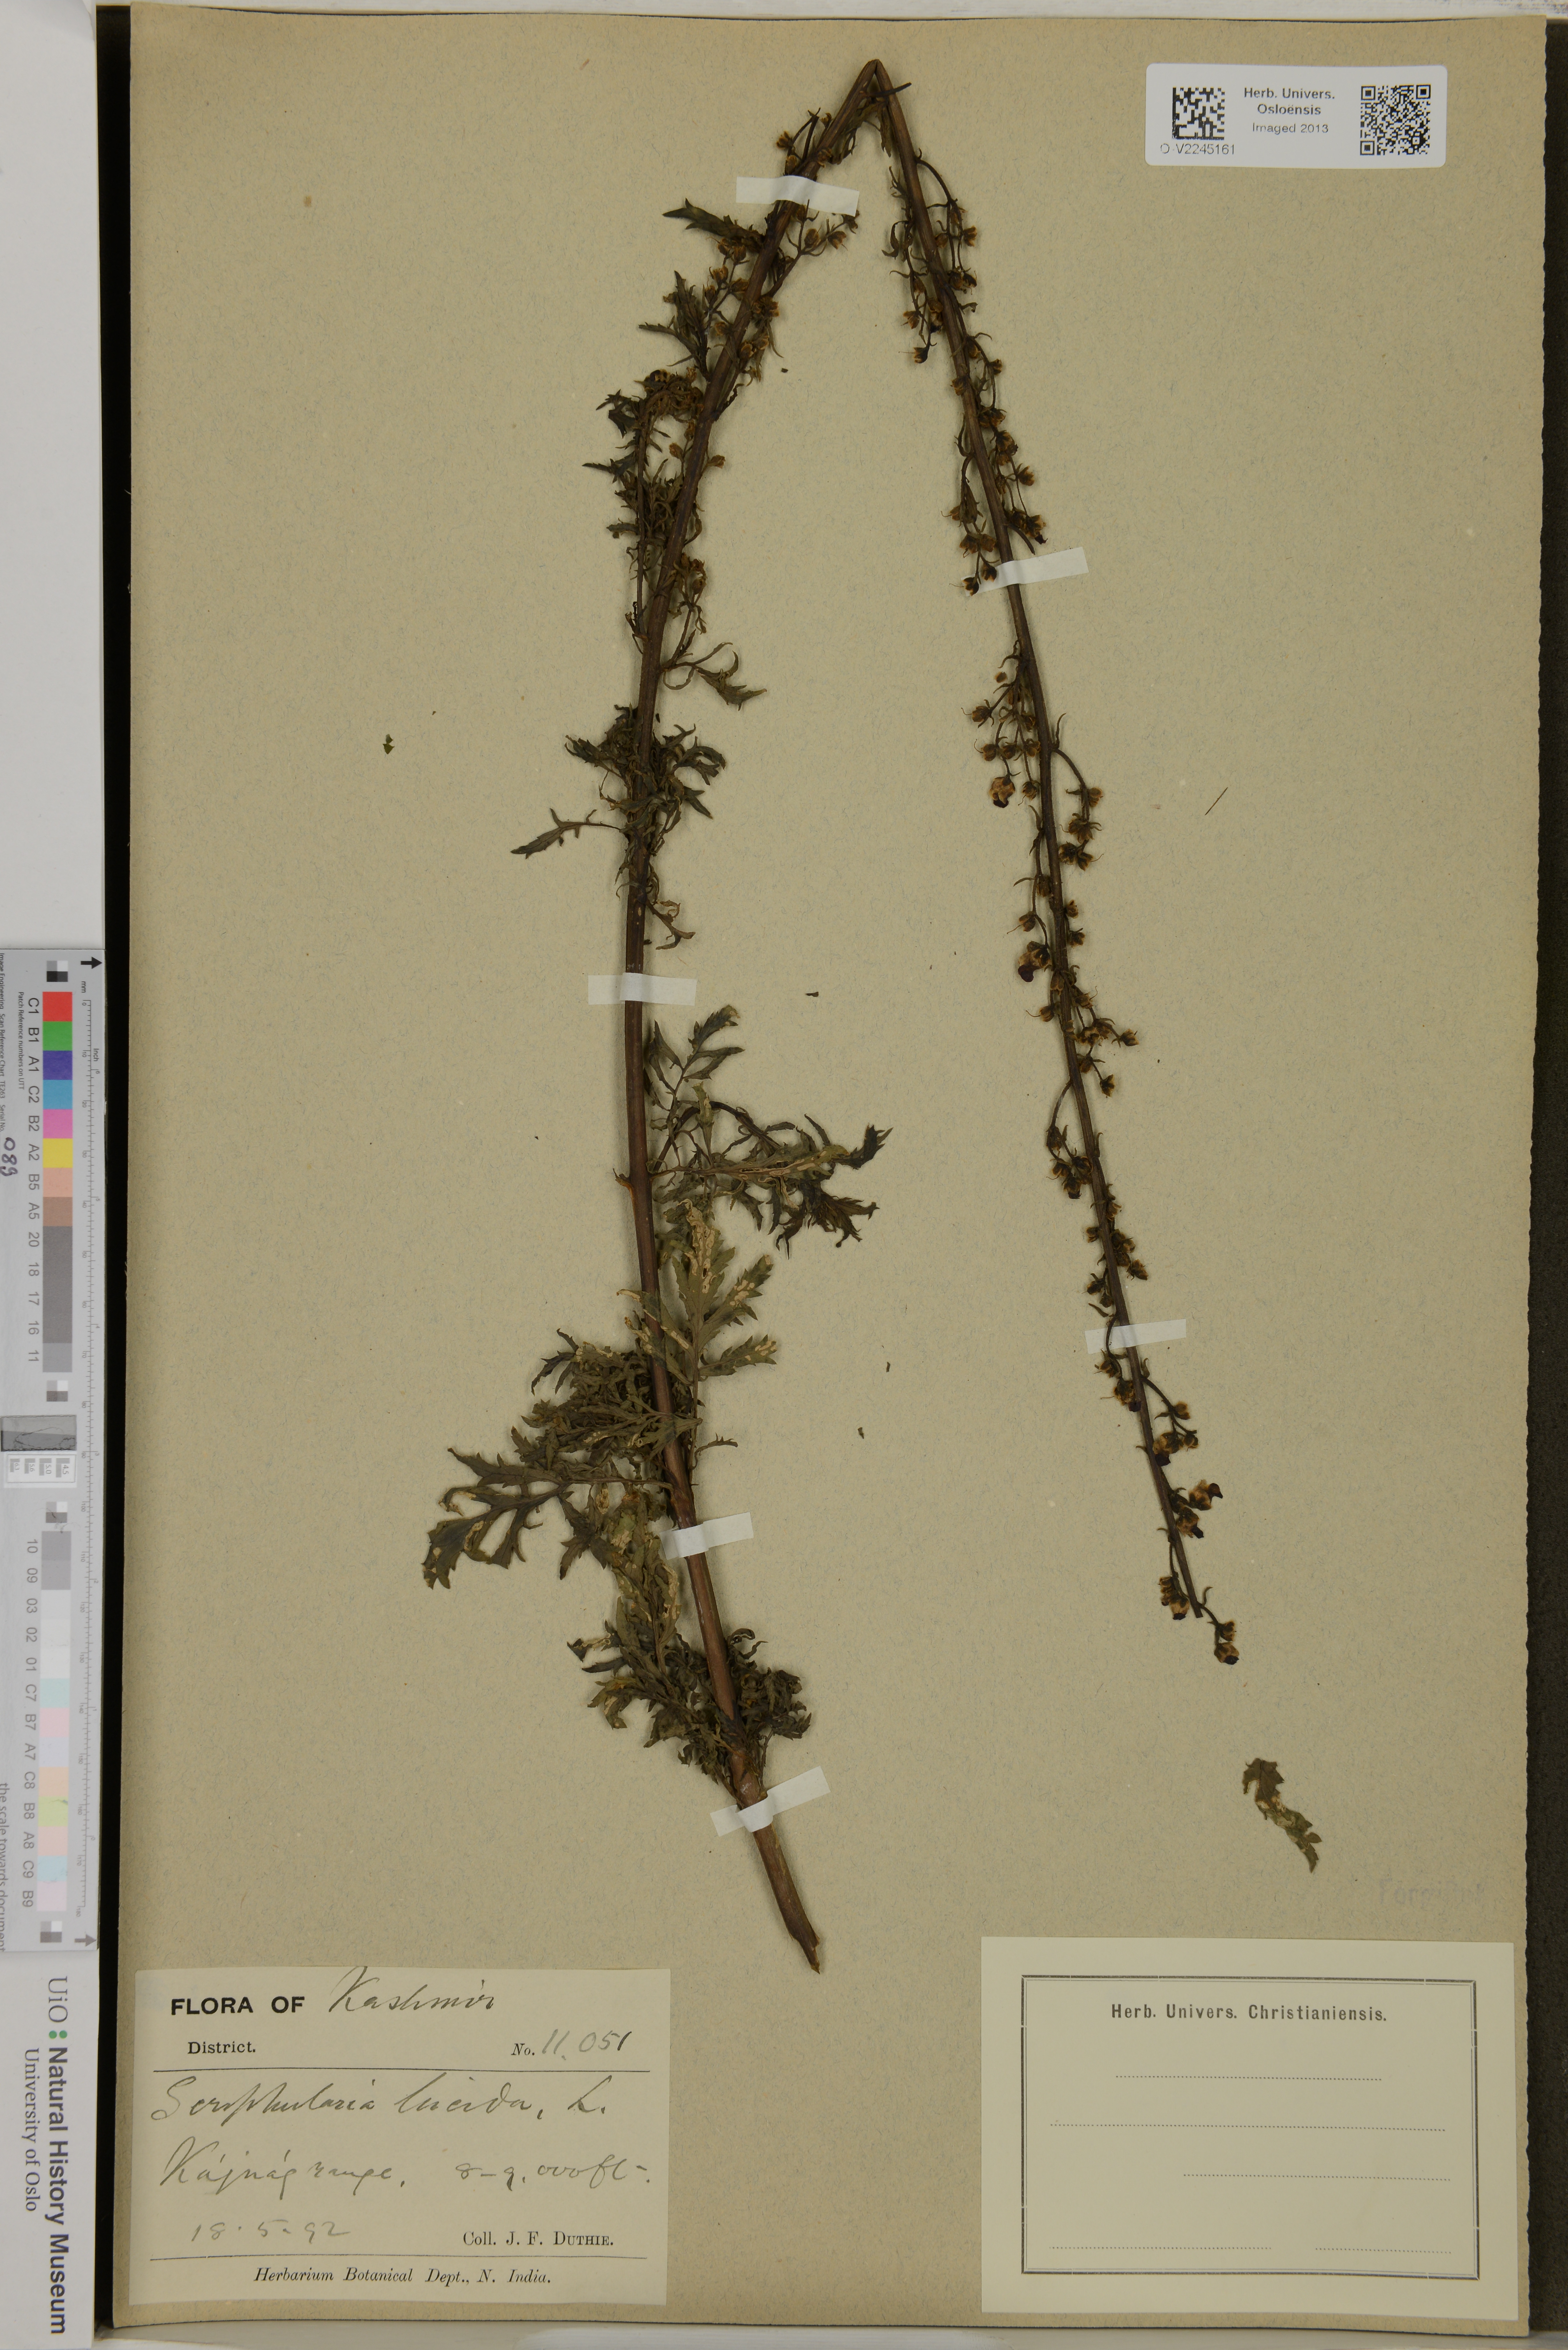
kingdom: Plantae
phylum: Tracheophyta
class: Magnoliopsida
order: Lamiales
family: Scrophulariaceae
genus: Scrophularia
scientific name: Scrophularia lucida
